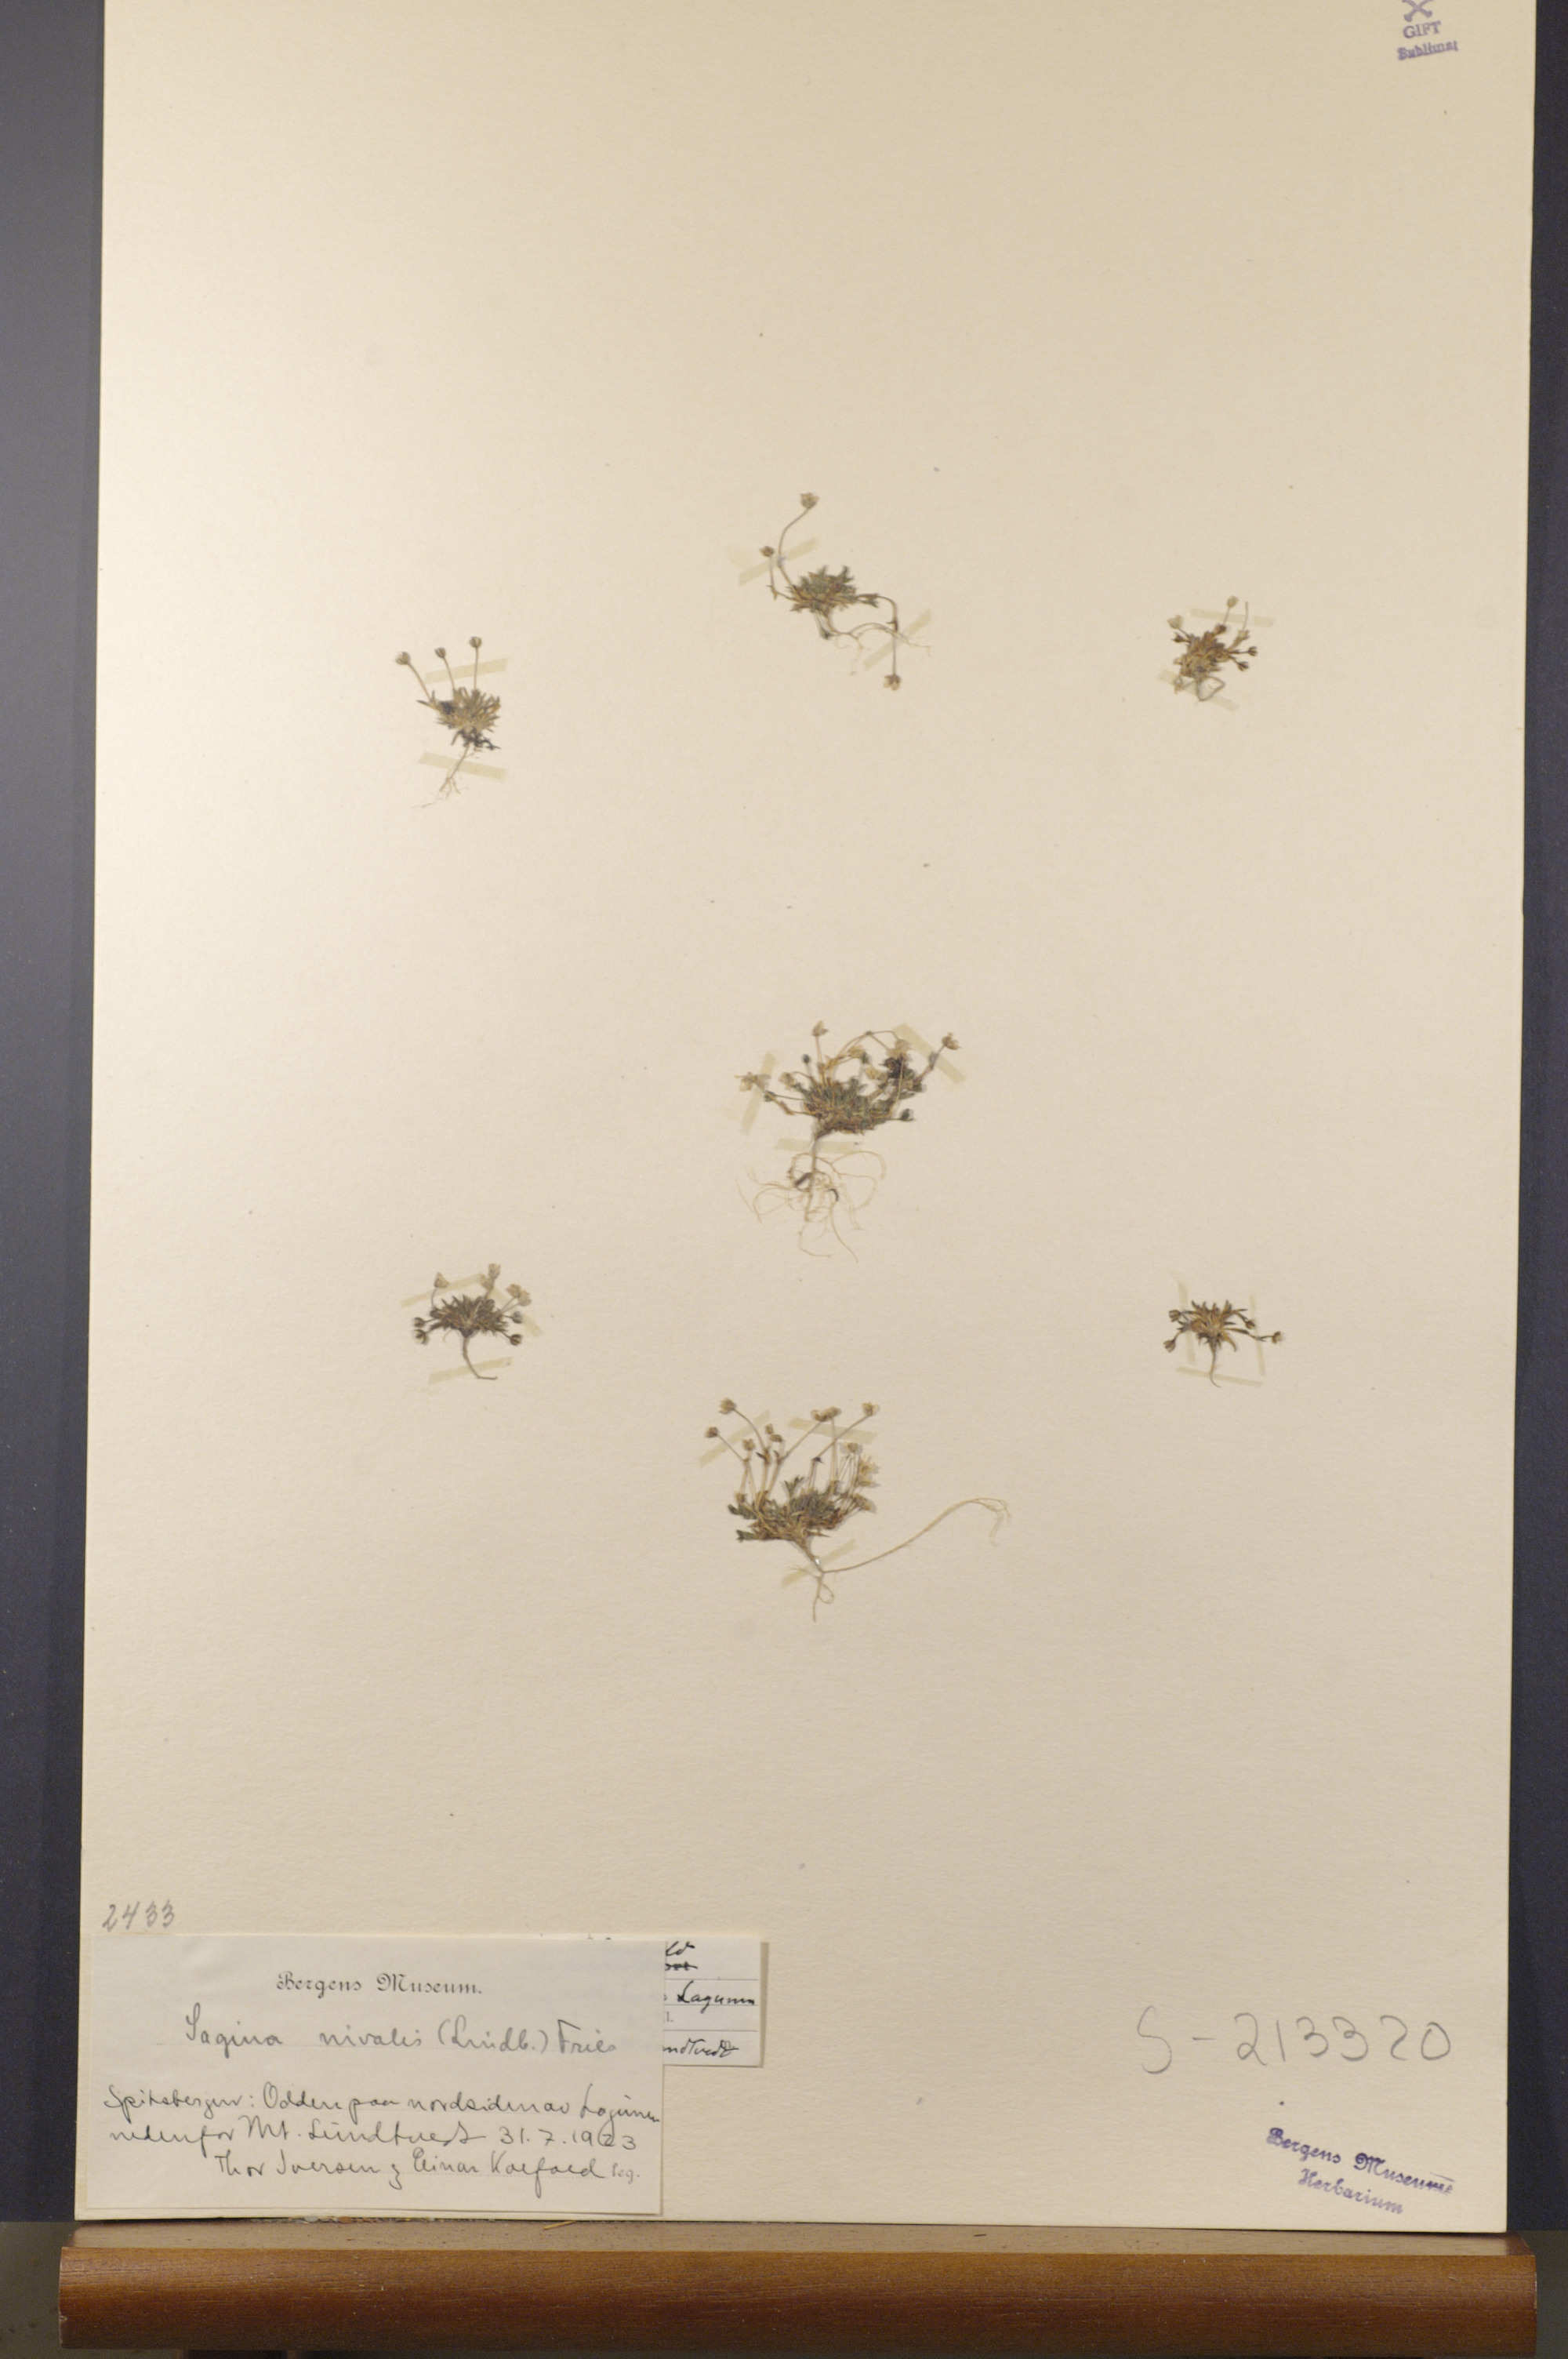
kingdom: Plantae
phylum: Tracheophyta
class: Magnoliopsida
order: Caryophyllales
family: Caryophyllaceae
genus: Sagina
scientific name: Sagina nivalis
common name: Snow pearlwort
